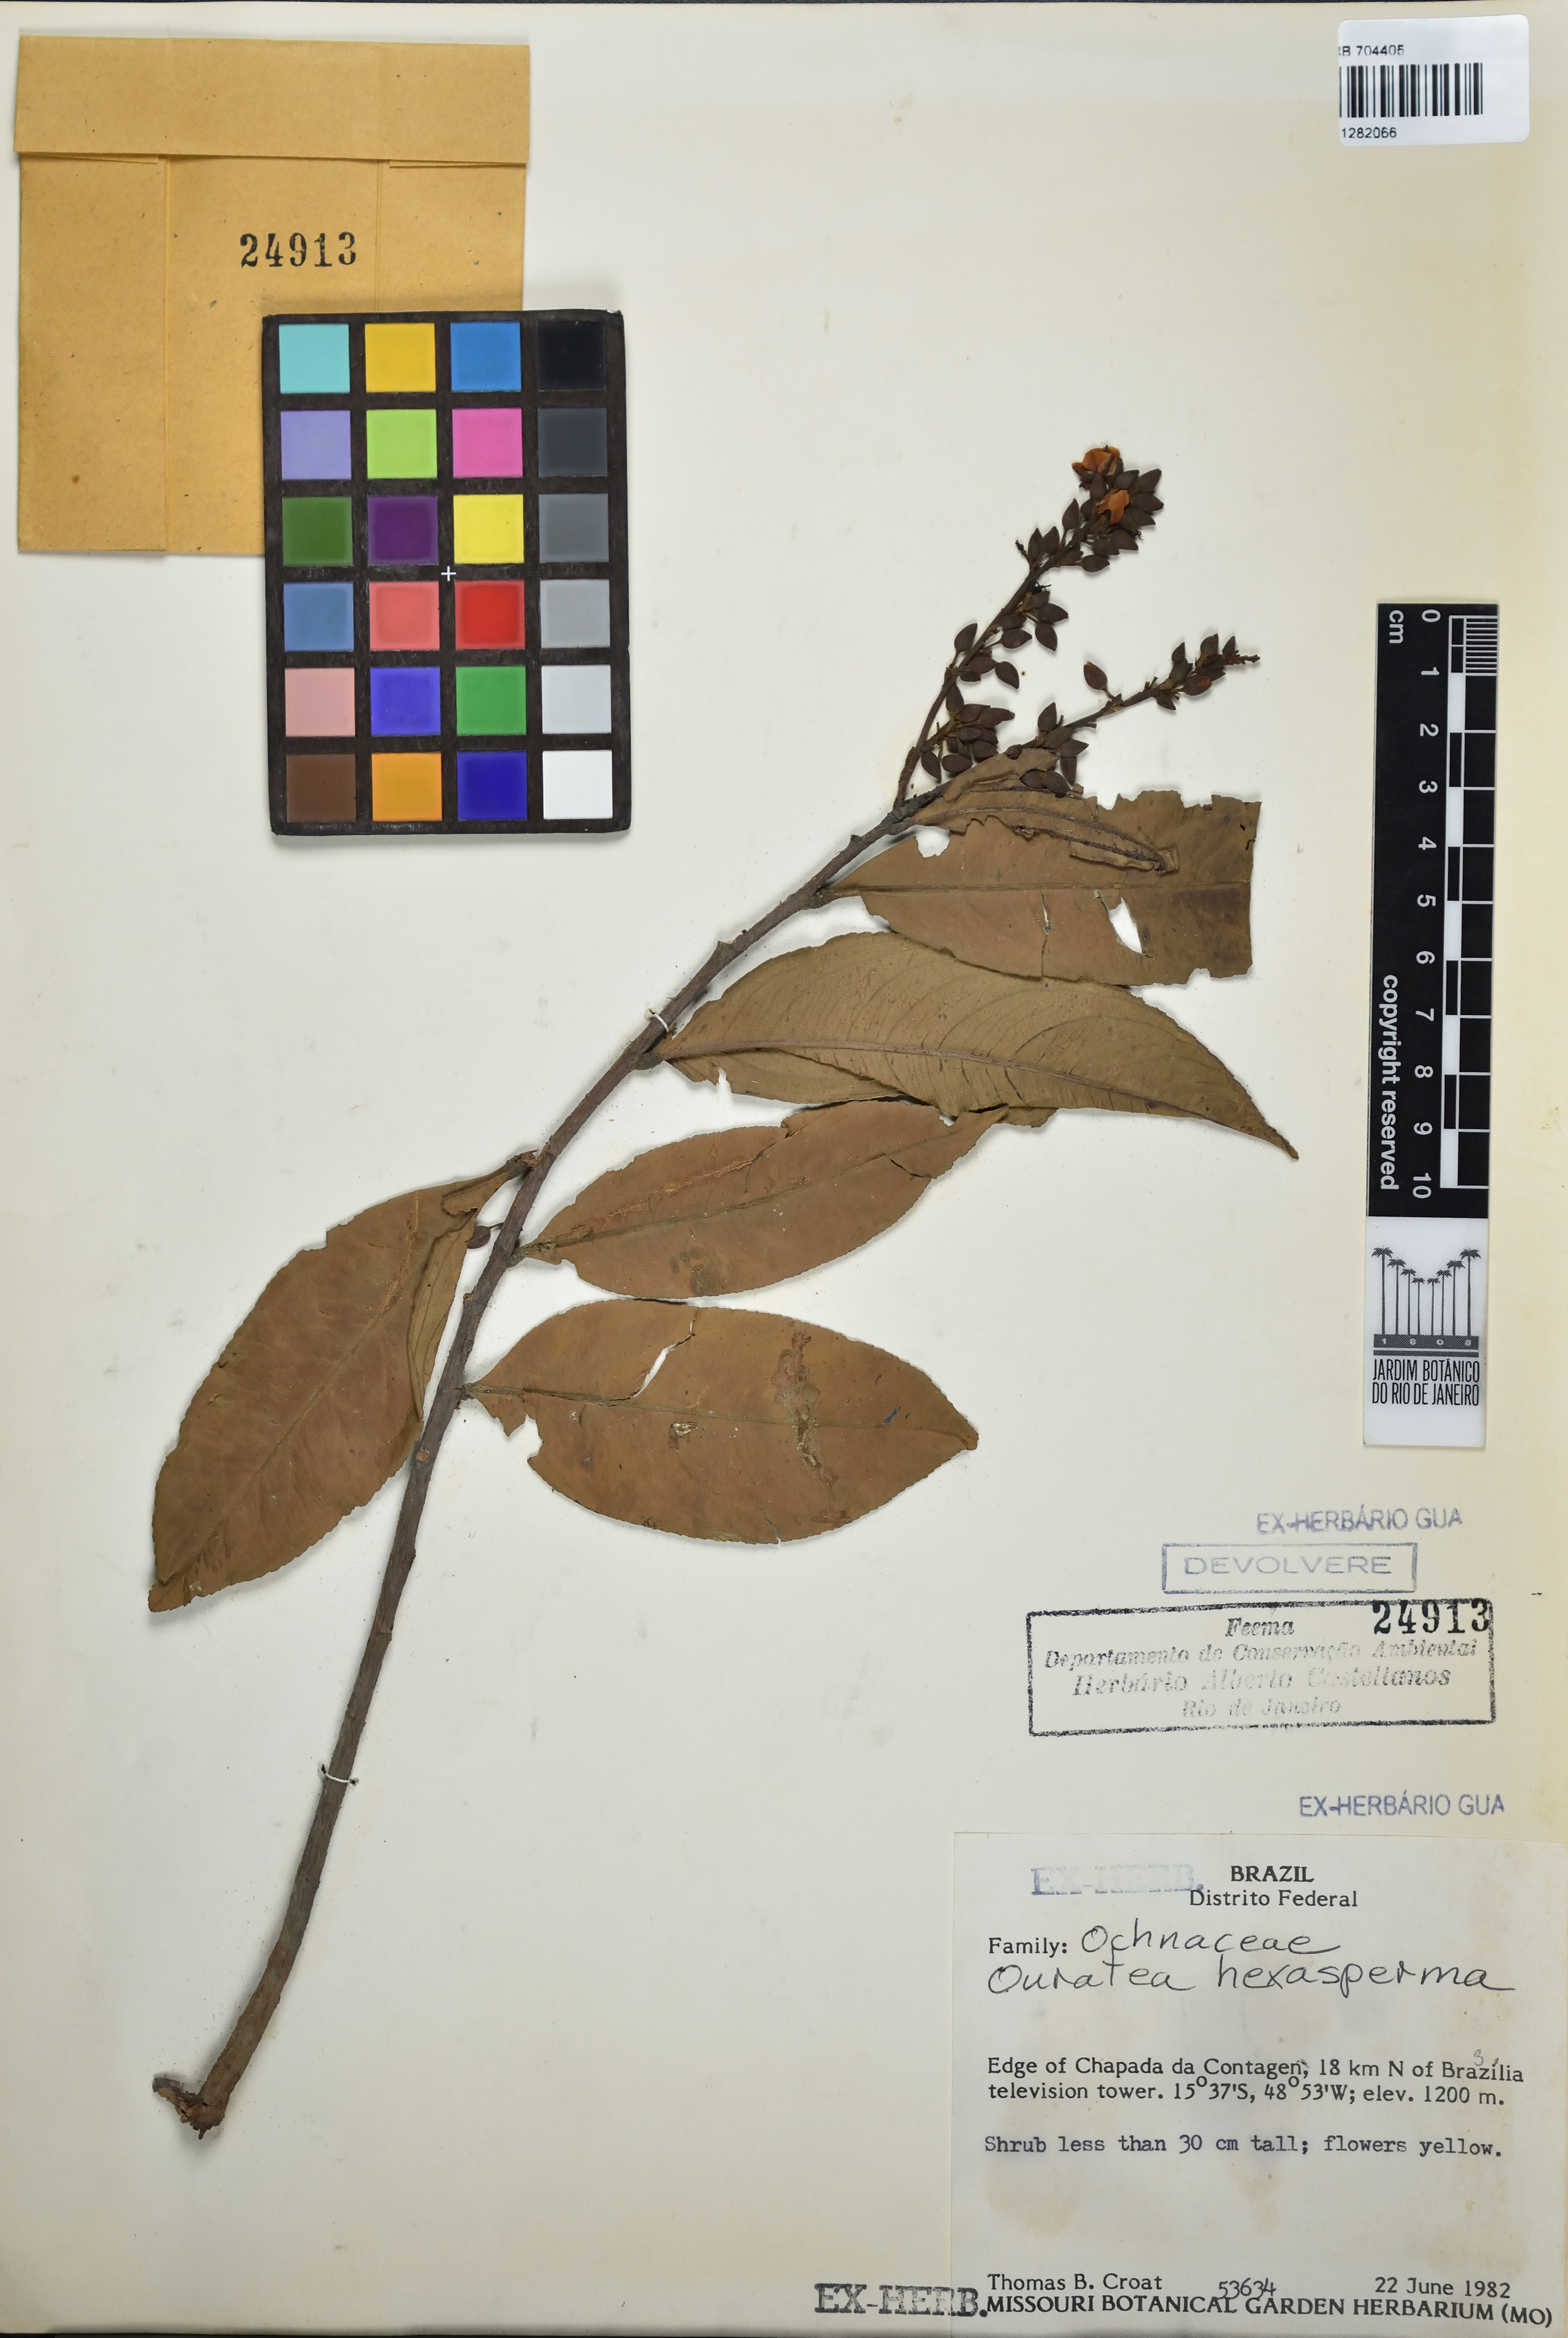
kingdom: Plantae
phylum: Tracheophyta
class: Magnoliopsida
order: Malpighiales
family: Ochnaceae
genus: Ouratea
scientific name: Ouratea hexasperma
